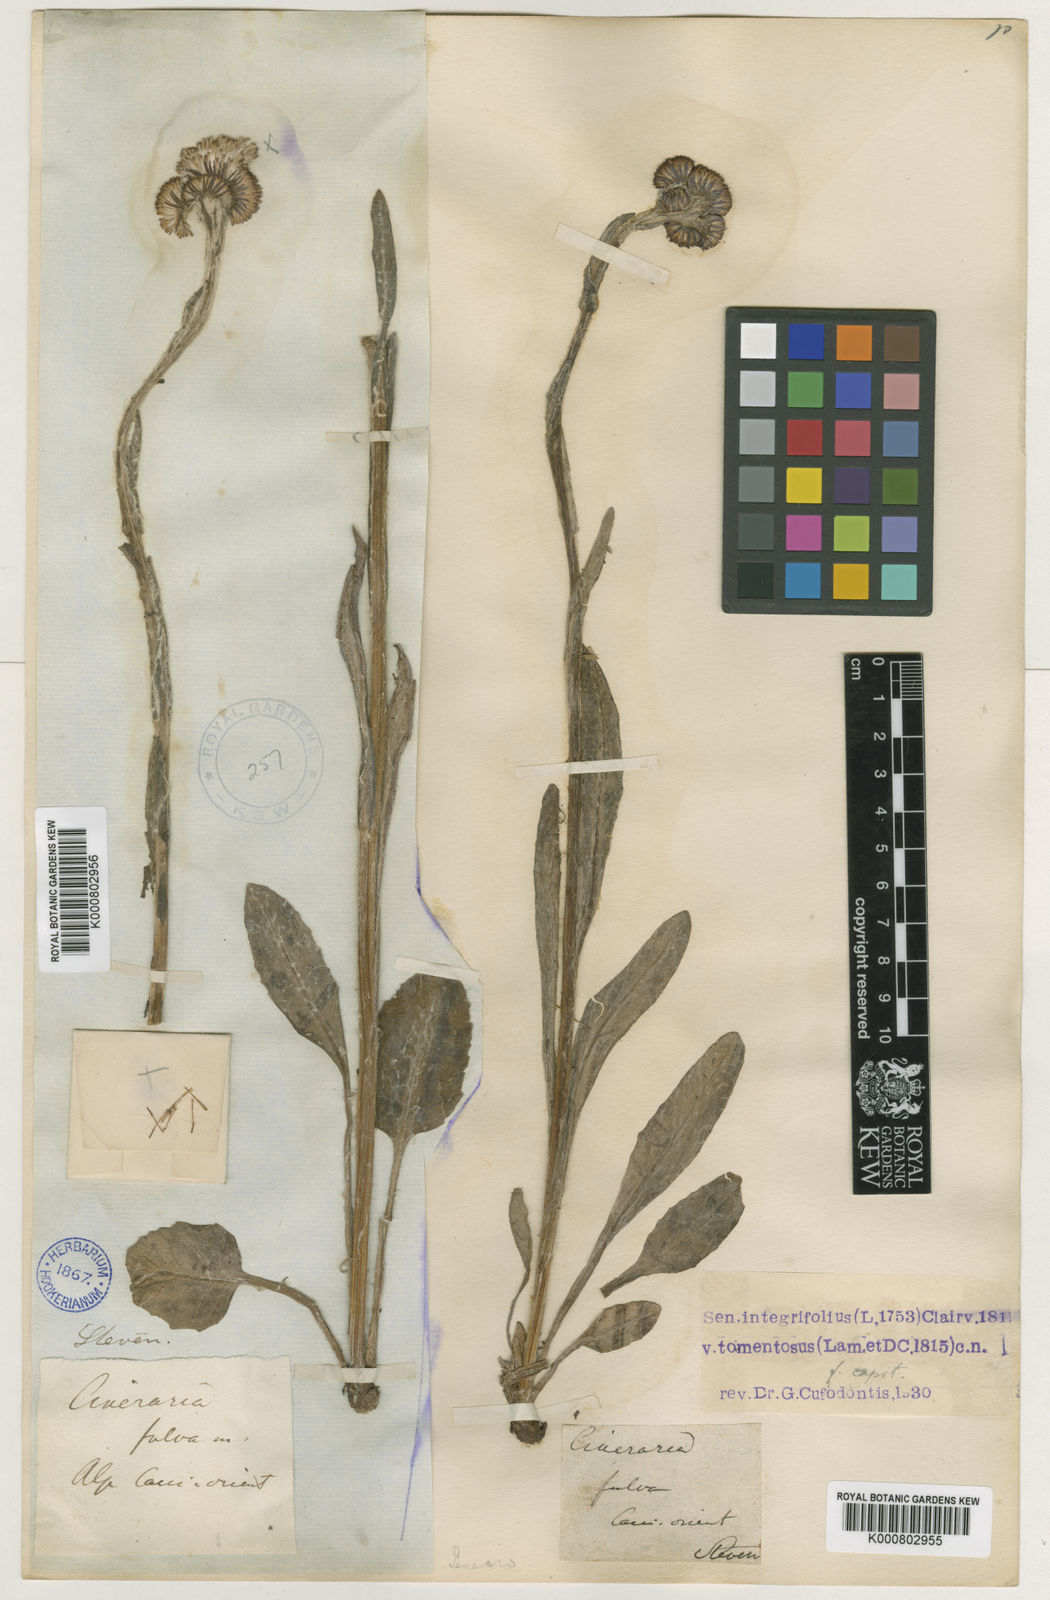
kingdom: Plantae
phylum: Tracheophyta
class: Magnoliopsida
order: Asterales
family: Asteraceae
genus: Tephroseris
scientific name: Tephroseris integrifolia
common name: Field fleawort
